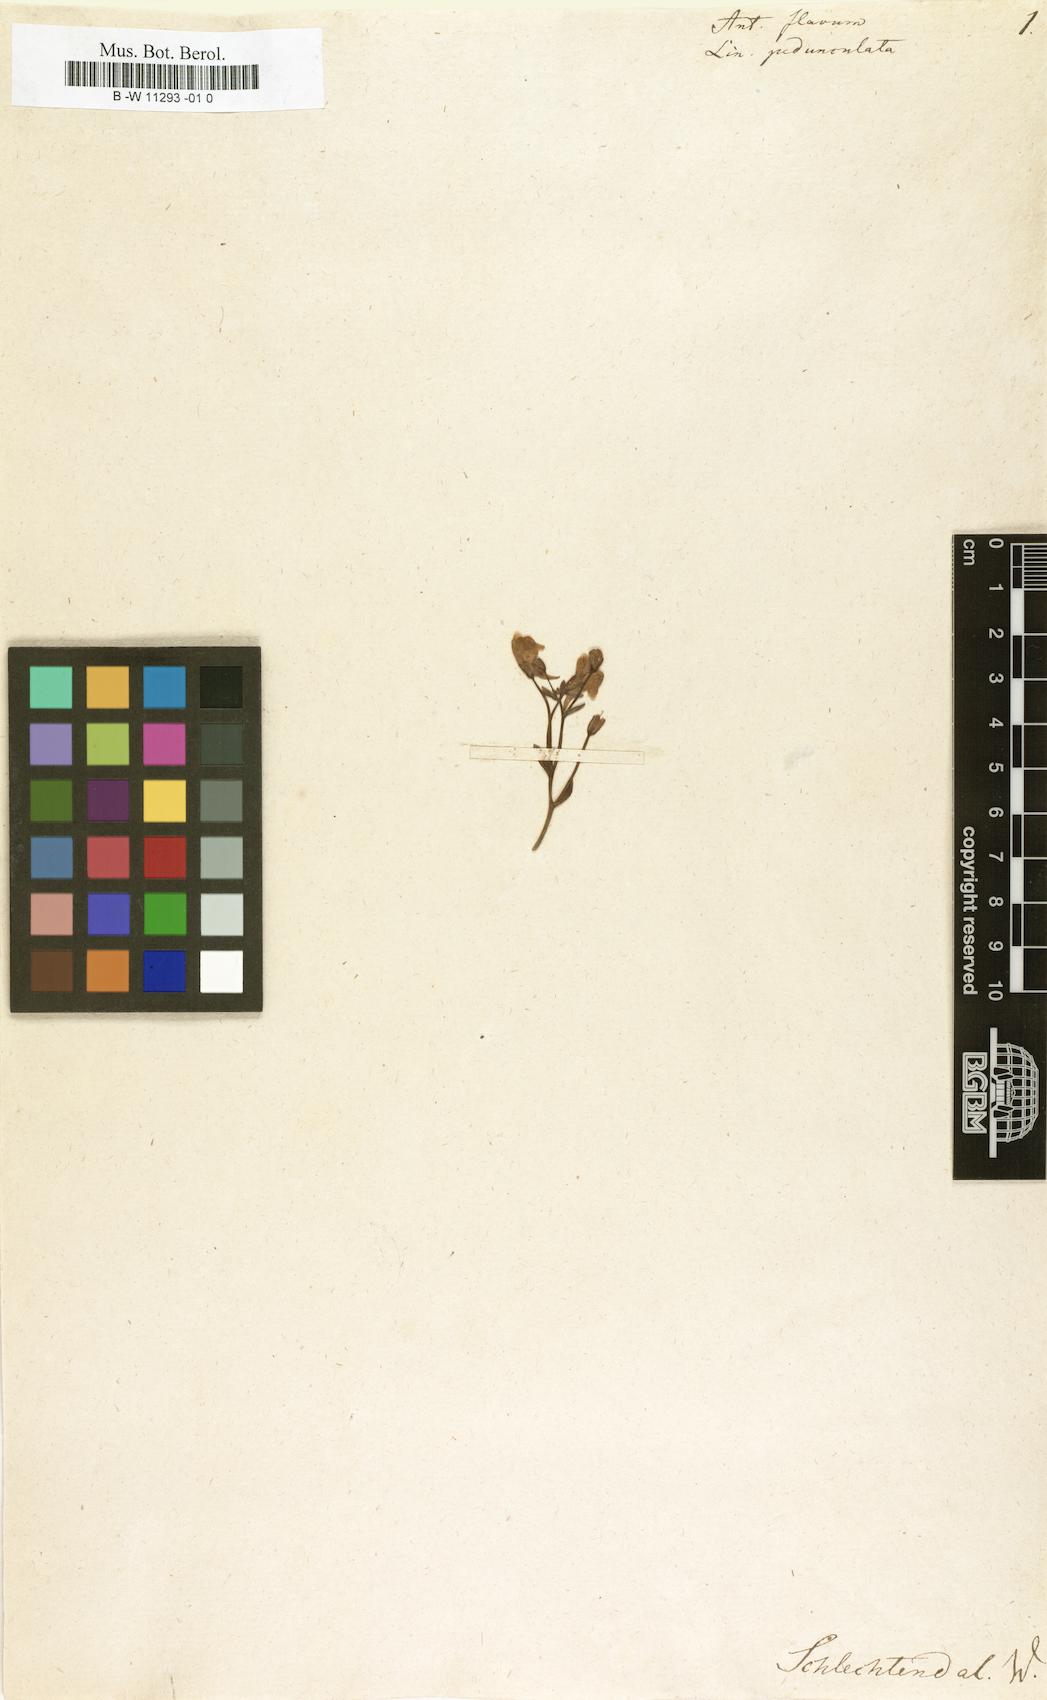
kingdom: Plantae
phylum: Tracheophyta
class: Magnoliopsida
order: Lamiales
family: Plantaginaceae
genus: Linaria
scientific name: Linaria pedunculata
